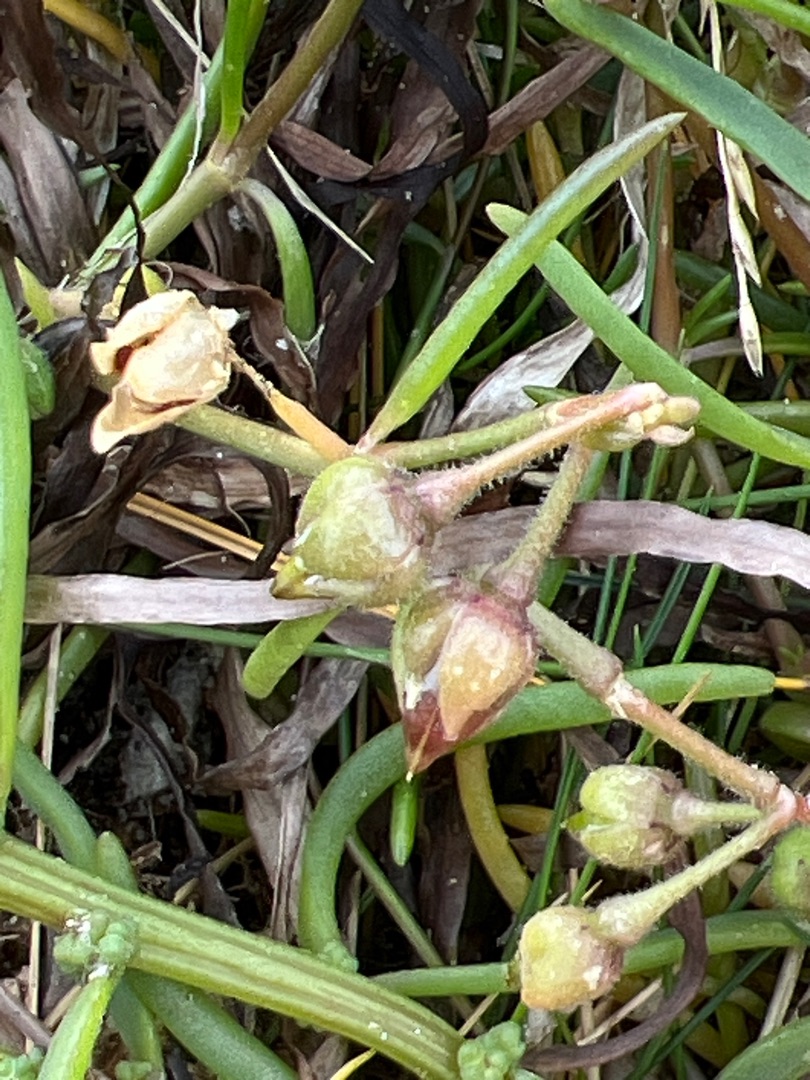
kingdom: Plantae
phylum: Tracheophyta
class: Magnoliopsida
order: Caryophyllales
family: Caryophyllaceae
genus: Spergularia
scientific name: Spergularia media
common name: Vingefrøet hindeknæ
